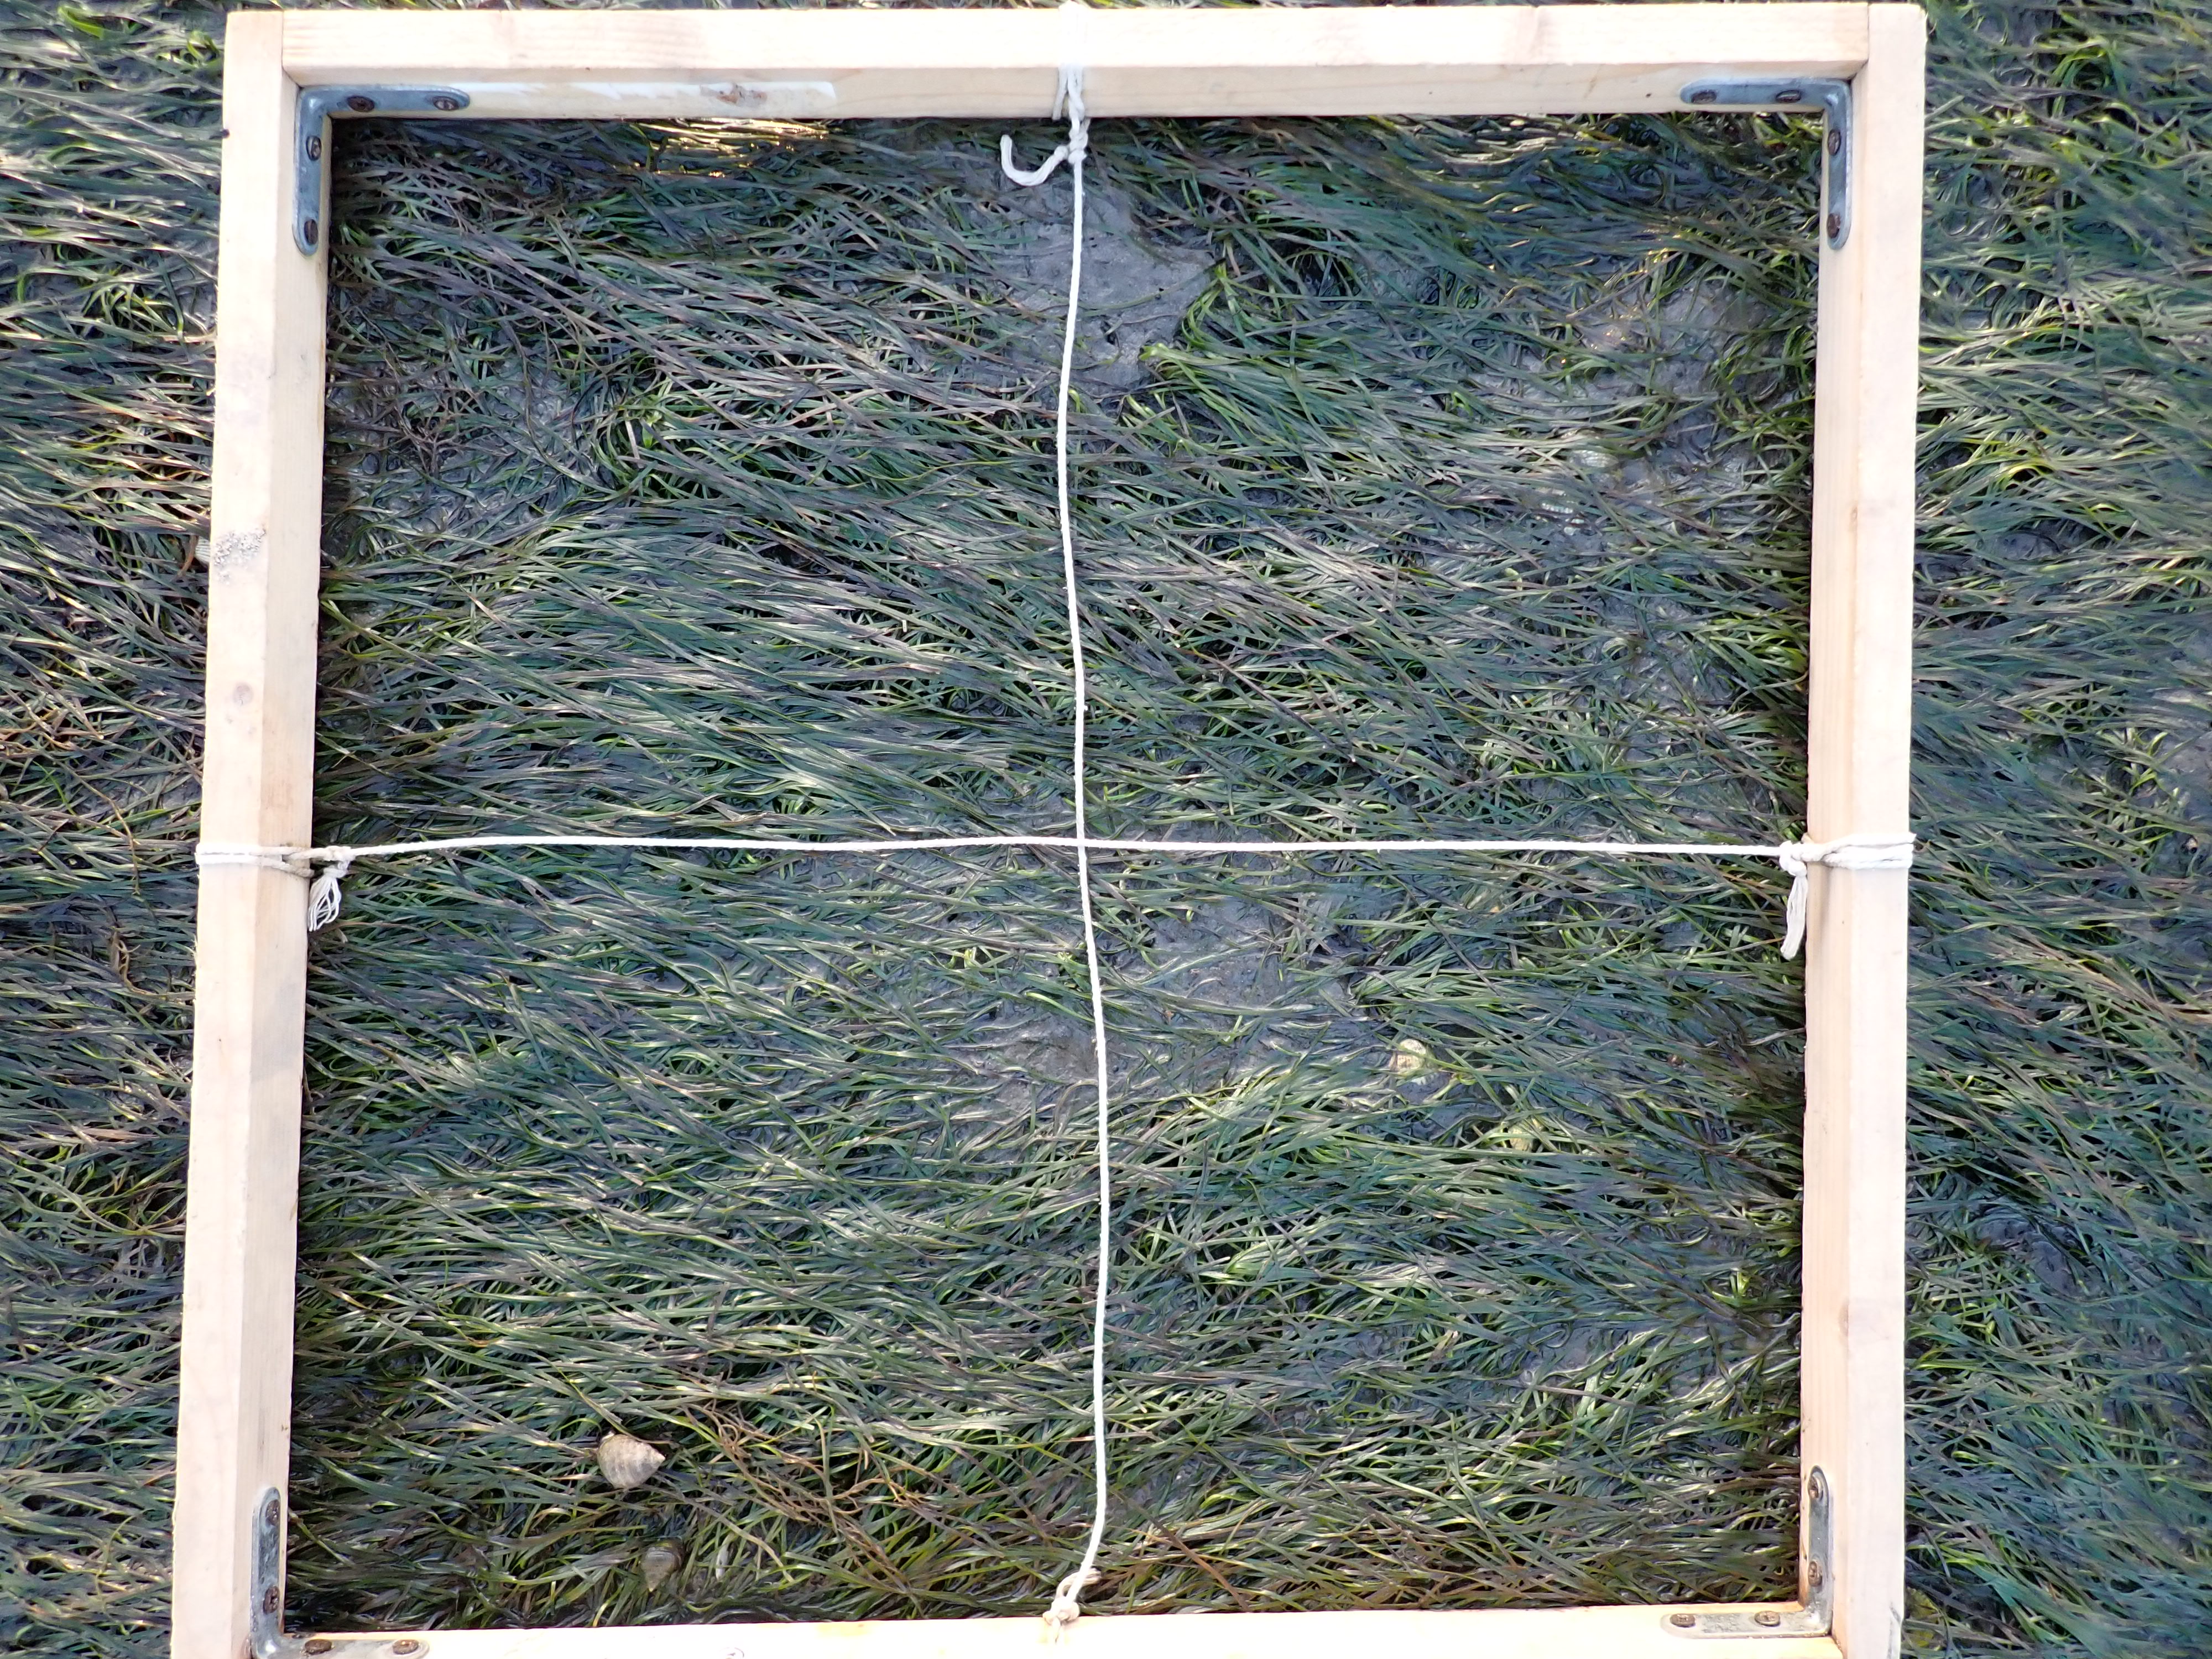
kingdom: Plantae
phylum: Tracheophyta
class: Liliopsida
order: Alismatales
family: Zosteraceae
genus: Zostera
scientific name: Zostera noltii
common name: Dwarf eelgrass
